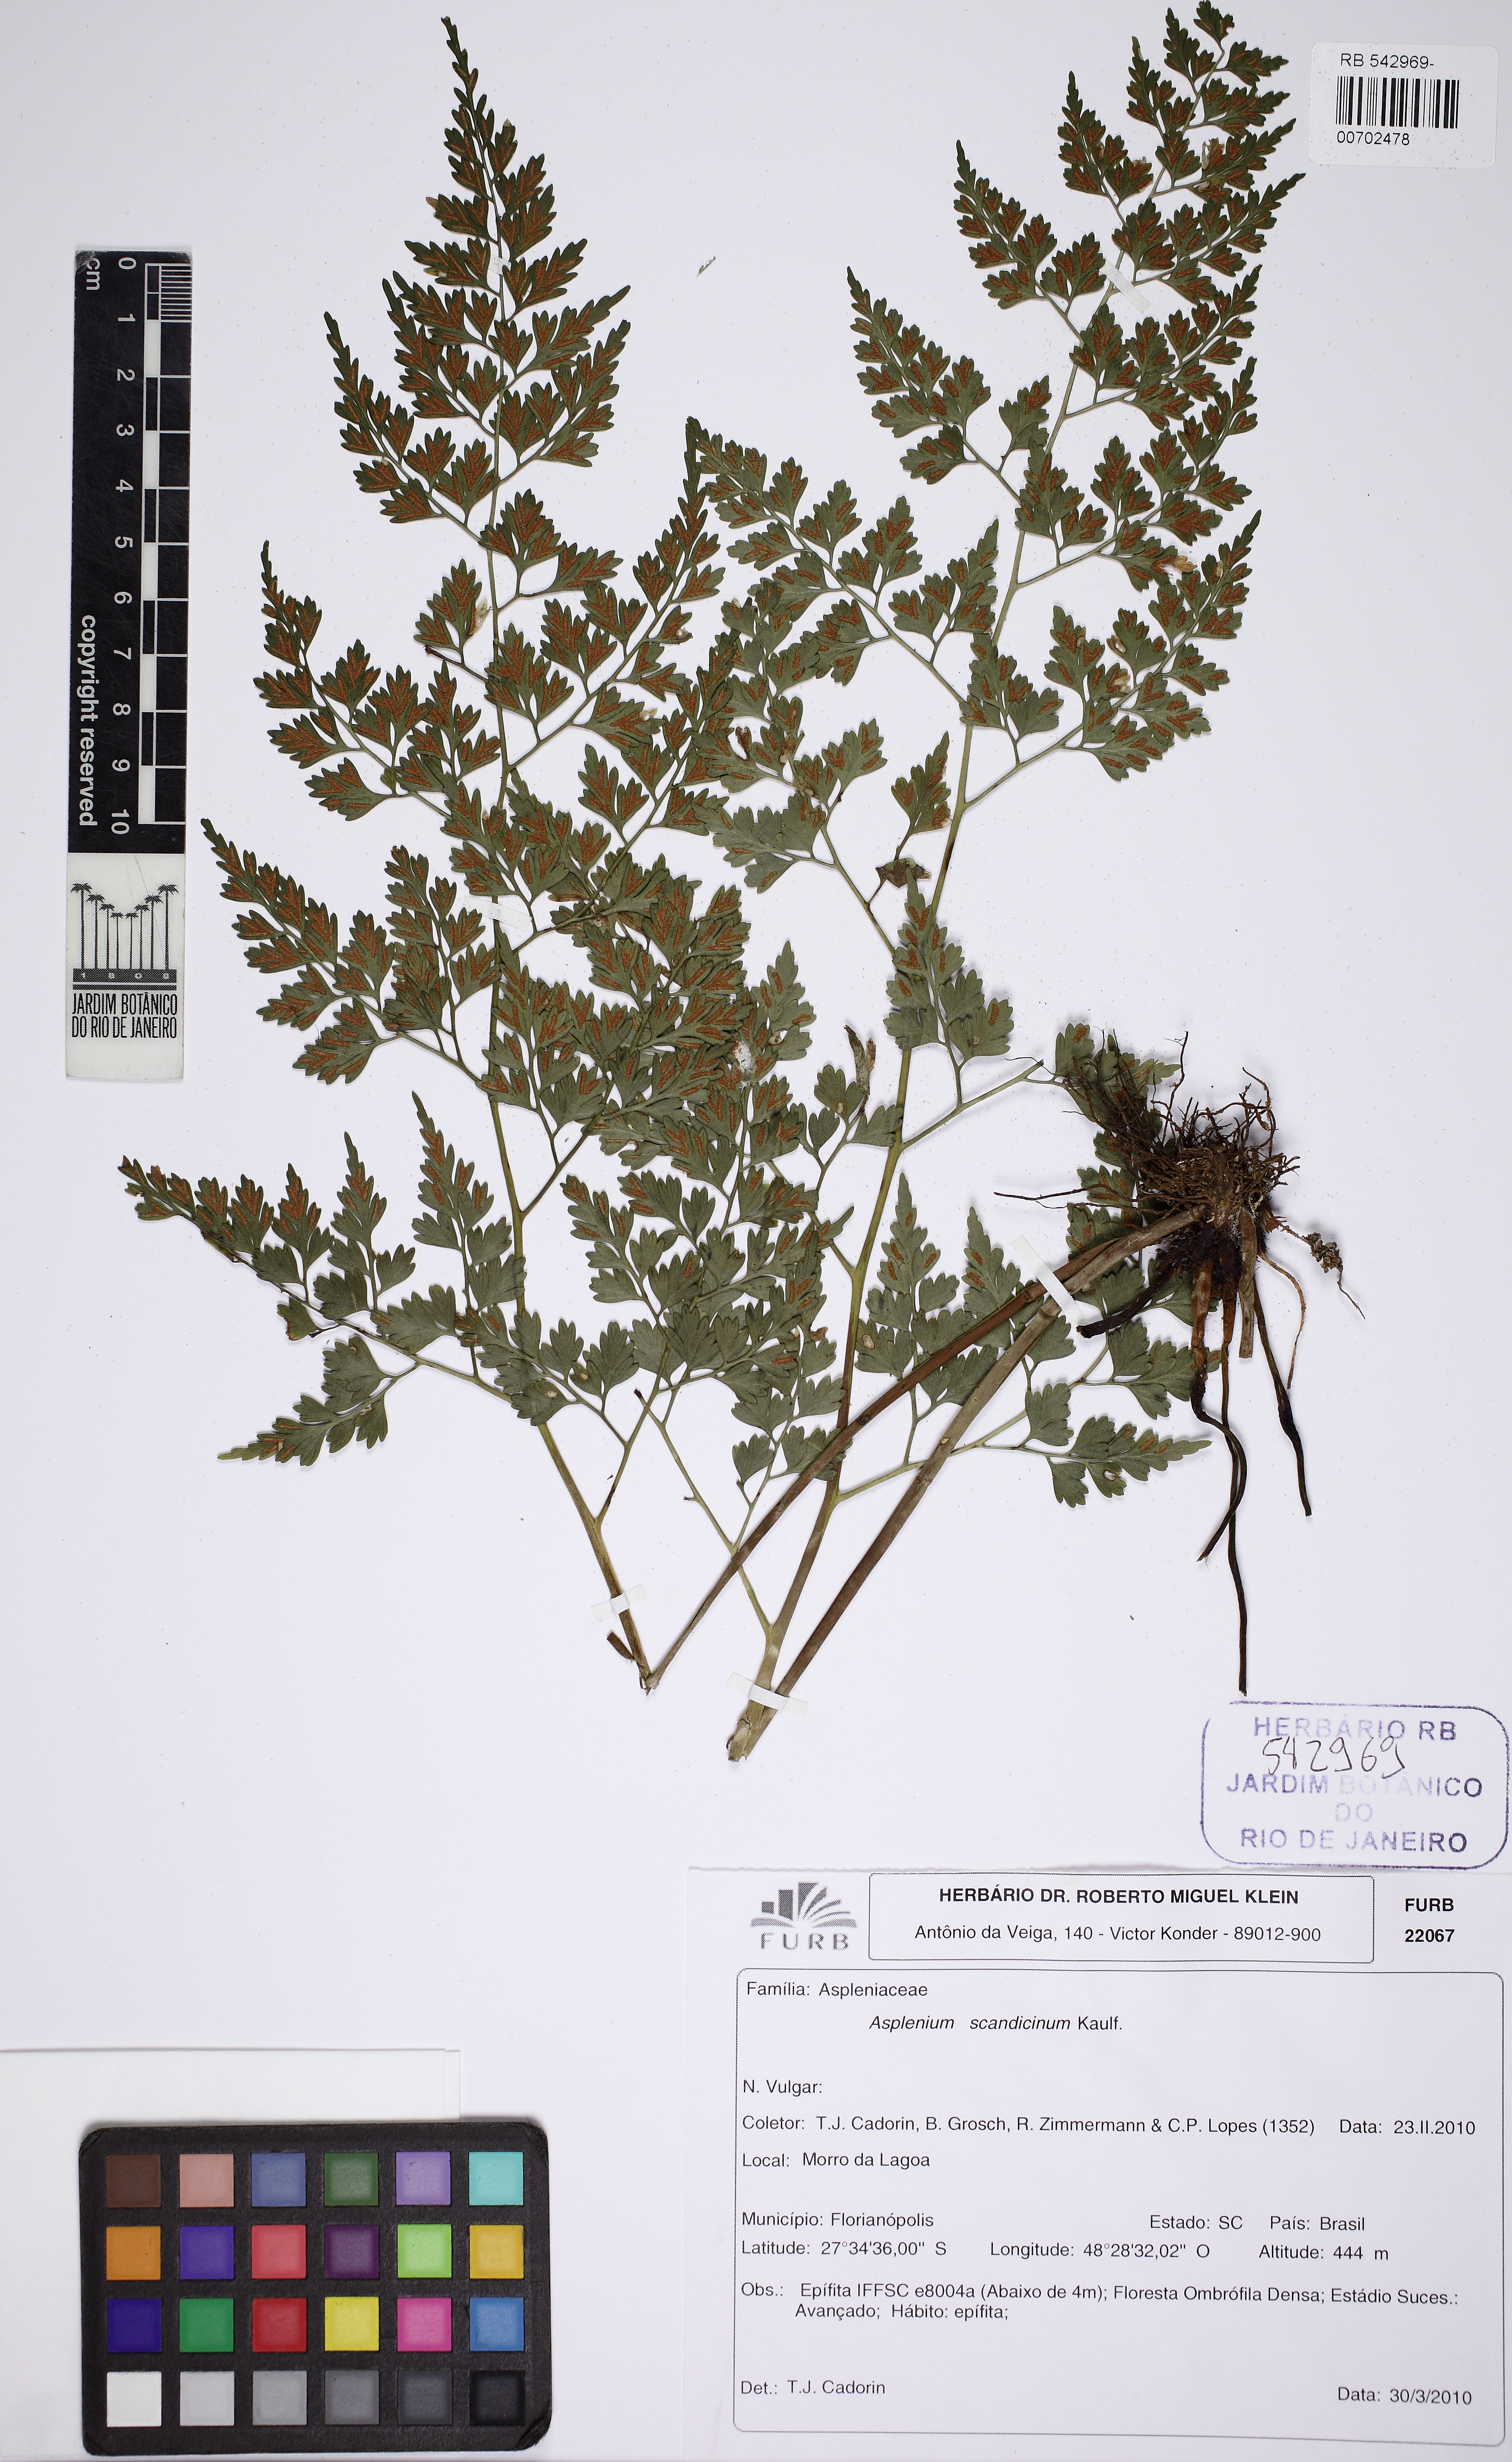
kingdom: Plantae
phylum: Tracheophyta
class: Polypodiopsida
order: Polypodiales
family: Aspleniaceae
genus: Asplenium
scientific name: Asplenium scandicinum
